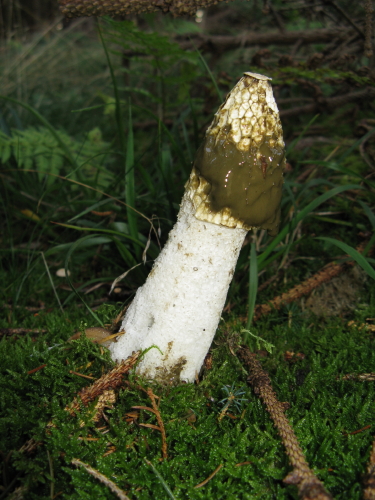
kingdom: Fungi
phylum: Basidiomycota
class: Agaricomycetes
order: Phallales
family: Phallaceae
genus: Phallus
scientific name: Phallus impudicus
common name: almindelig stinksvamp
